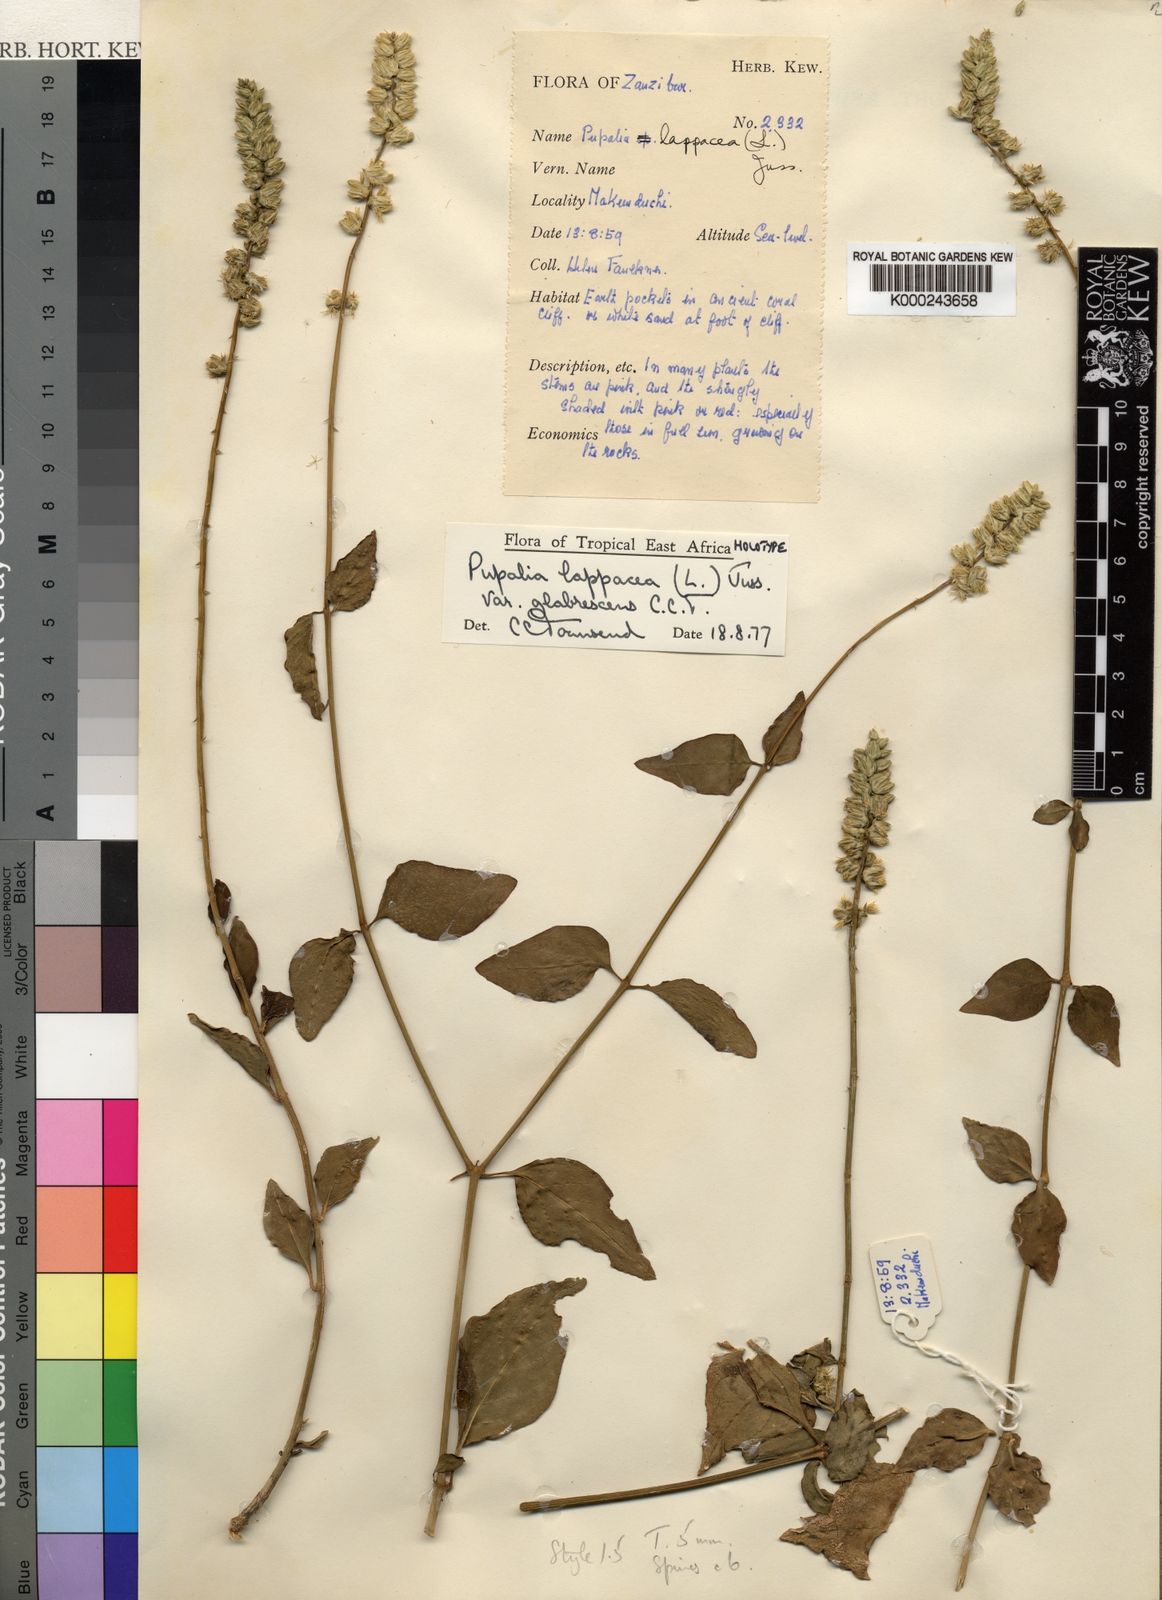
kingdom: Plantae
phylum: Tracheophyta
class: Magnoliopsida
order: Caryophyllales
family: Amaranthaceae
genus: Pupalia
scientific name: Pupalia lappacea
